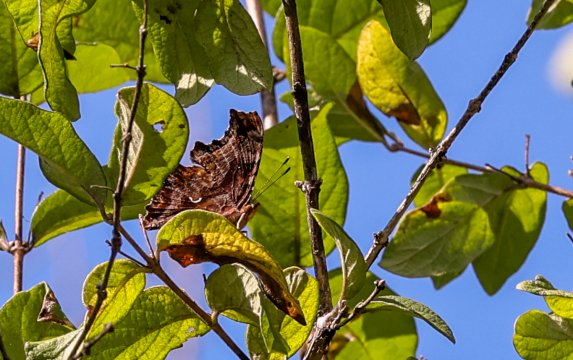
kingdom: Animalia
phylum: Arthropoda
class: Insecta
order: Lepidoptera
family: Nymphalidae
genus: Polygonia
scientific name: Polygonia comma
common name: Eastern Comma
